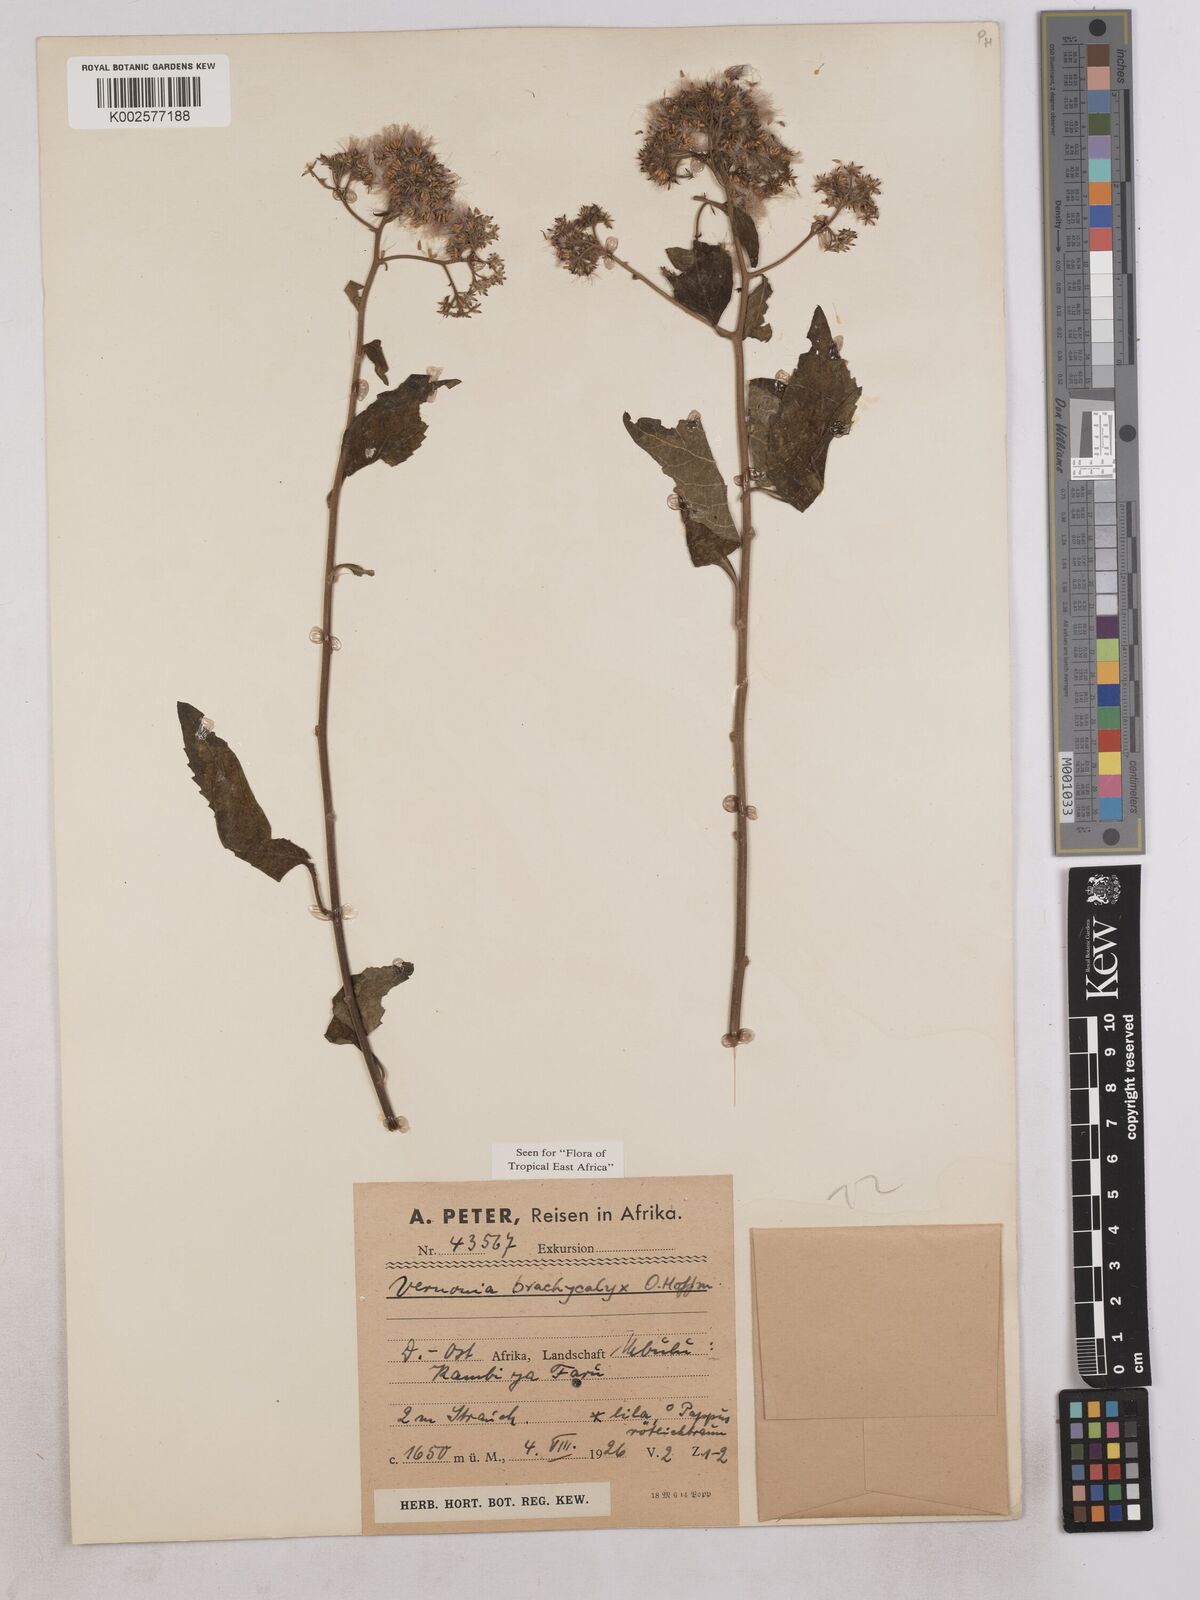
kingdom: Plantae
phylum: Tracheophyta
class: Magnoliopsida
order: Asterales
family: Asteraceae
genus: Hoffmannanthus
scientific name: Hoffmannanthus abbotianus
